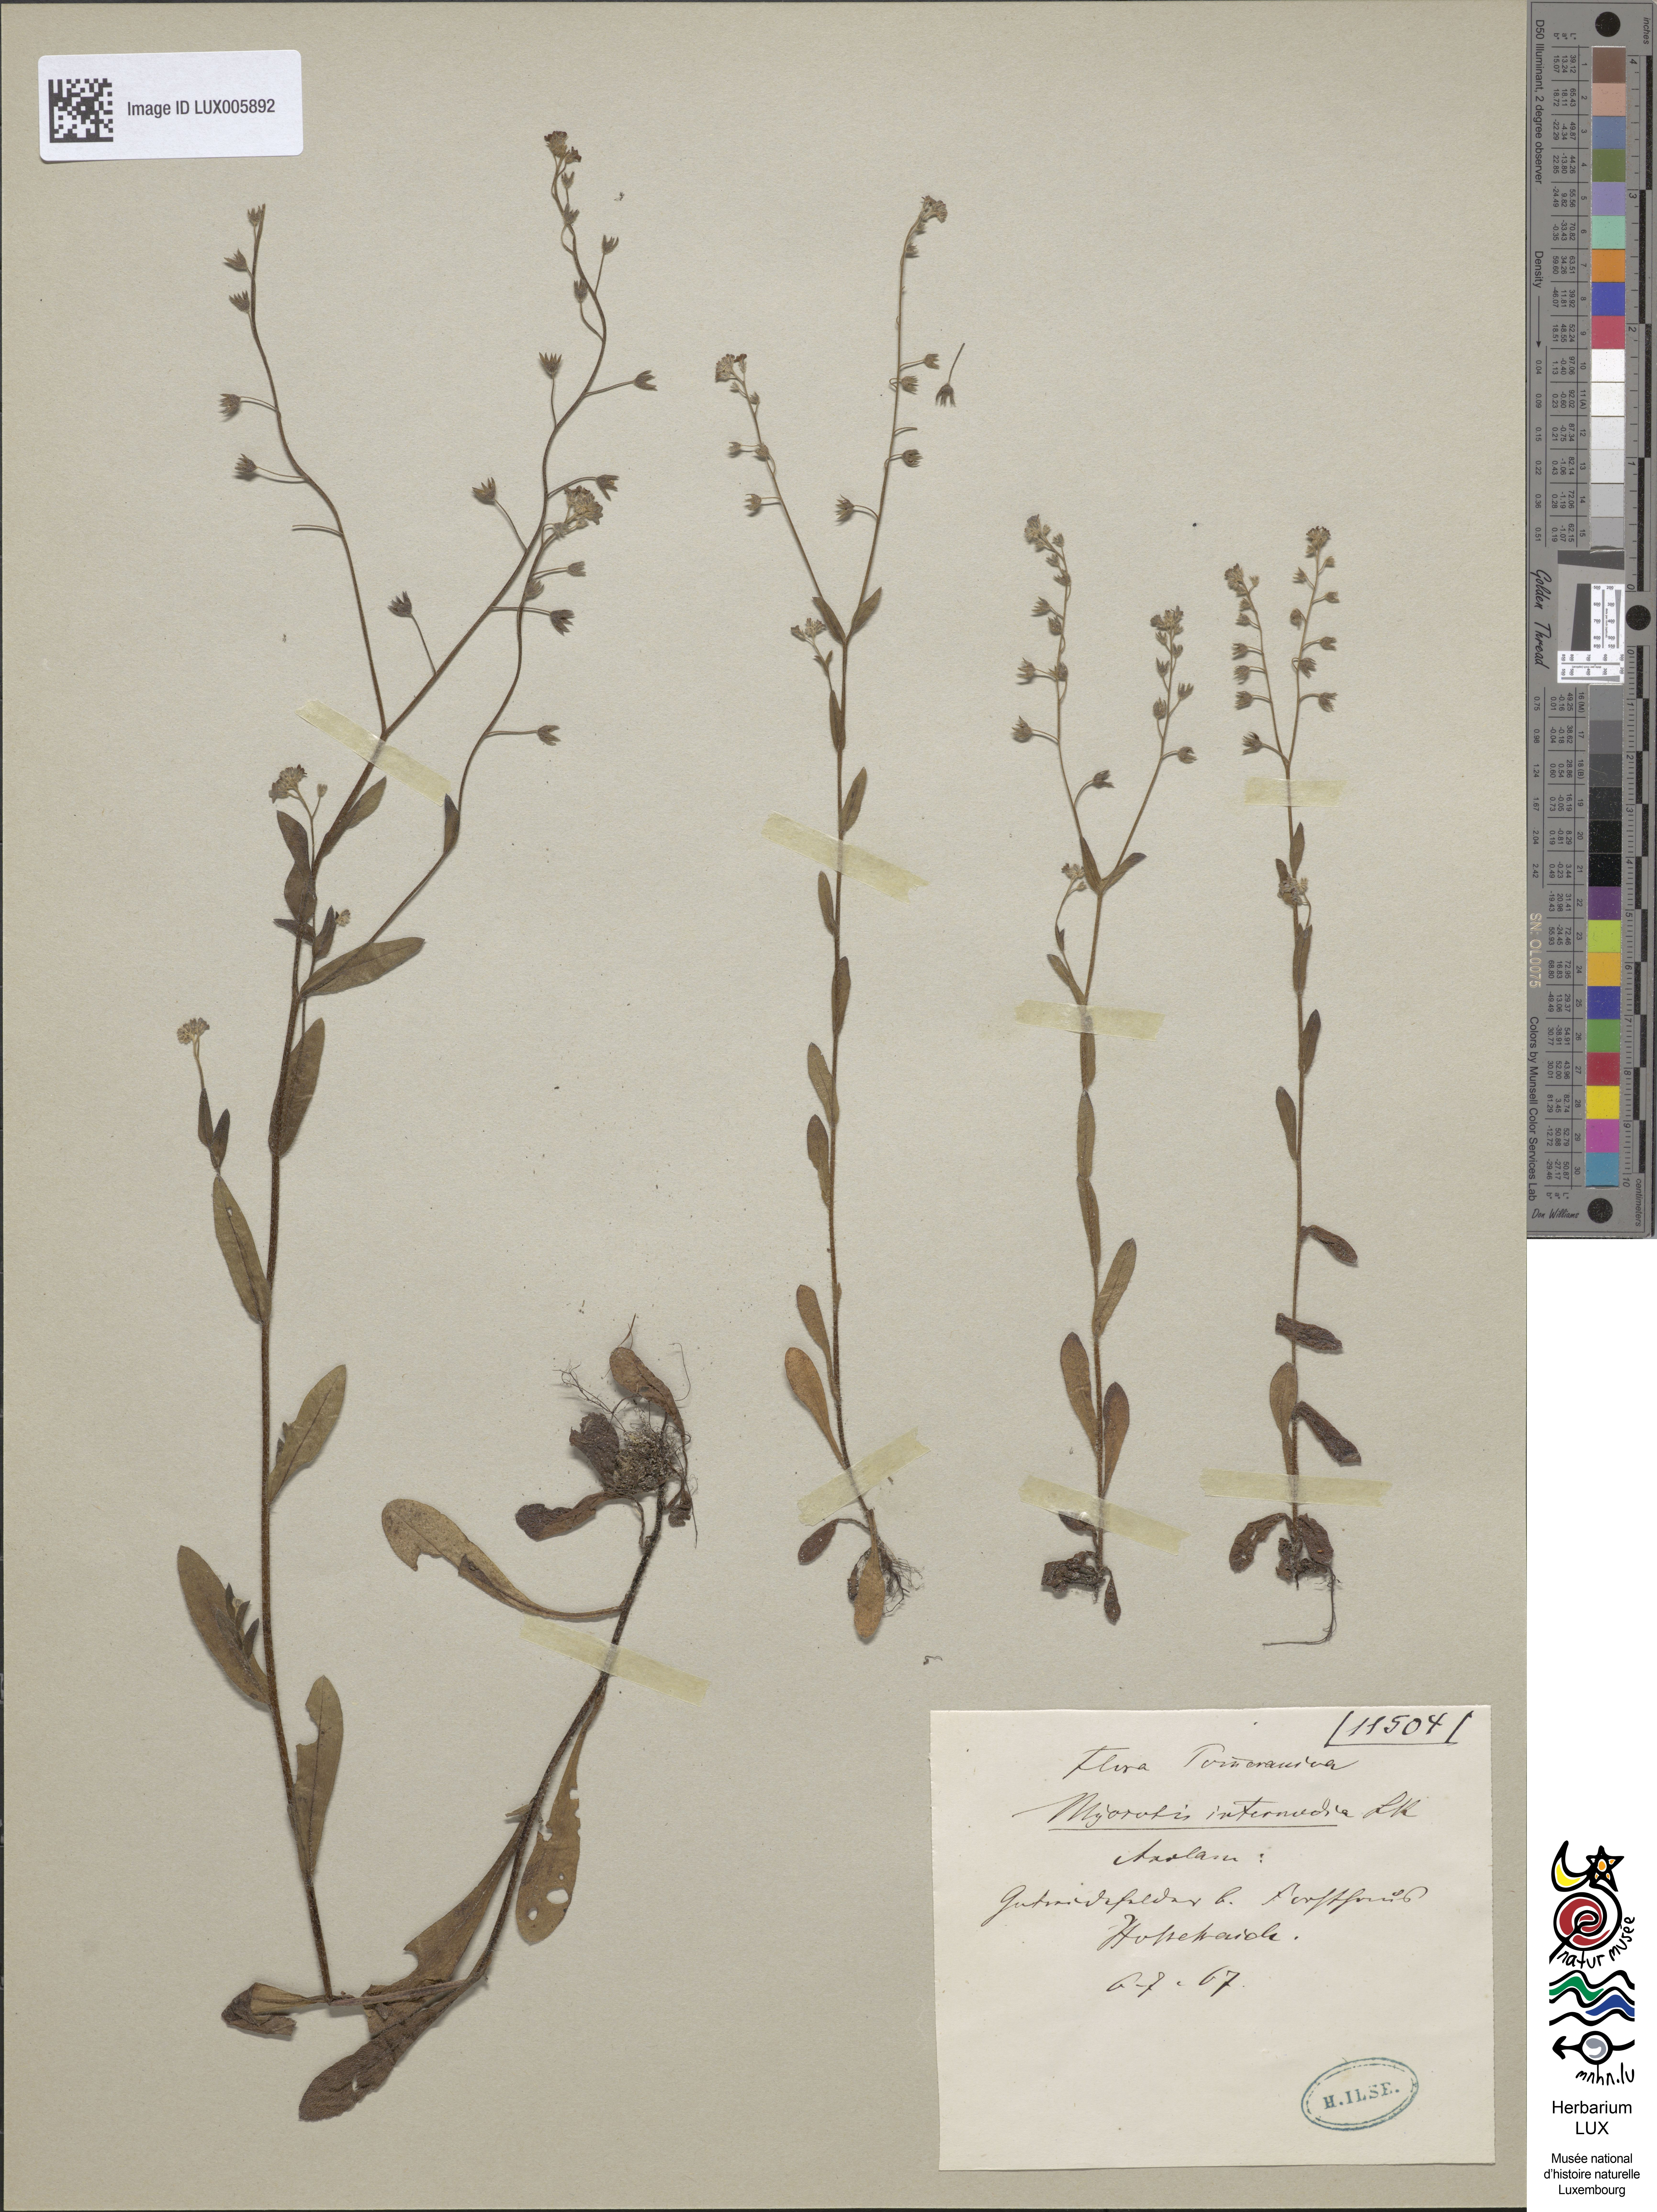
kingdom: Plantae
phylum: Tracheophyta
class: Magnoliopsida
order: Boraginales
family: Boraginaceae
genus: Myosotis
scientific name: Myosotis arvensis
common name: Field forget-me-not
